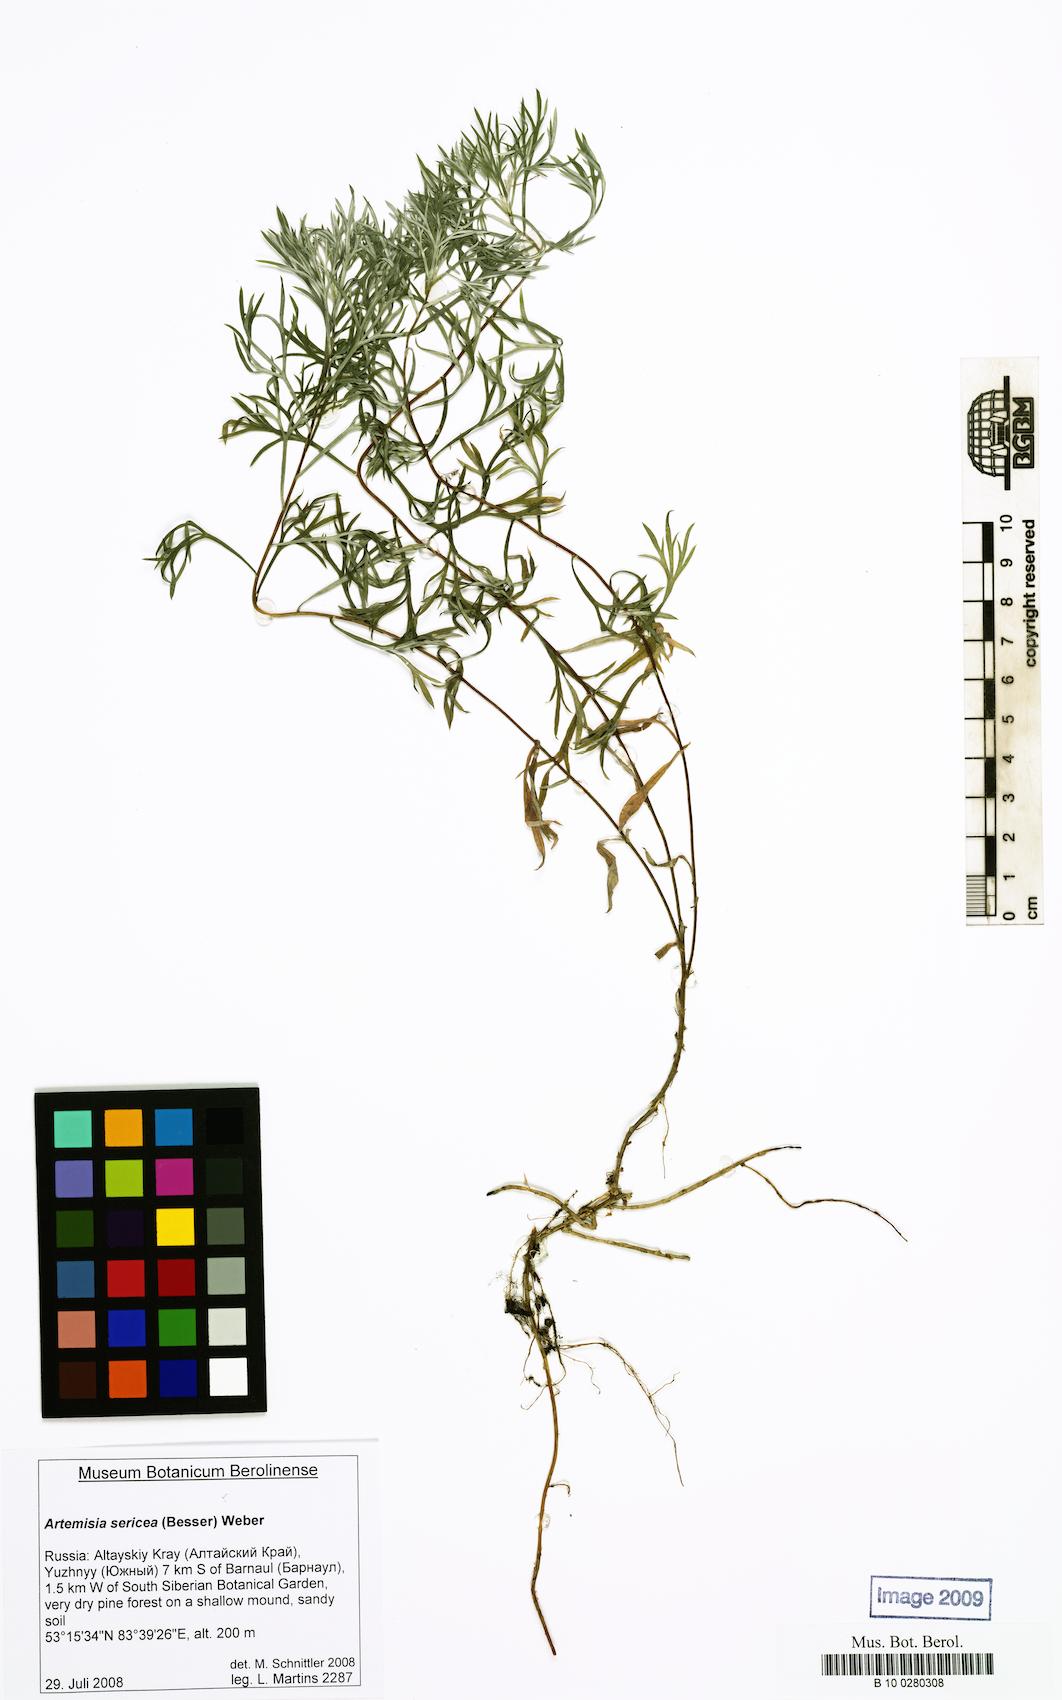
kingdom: Plantae
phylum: Tracheophyta
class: Magnoliopsida
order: Asterales
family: Asteraceae
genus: Artemisia
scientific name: Artemisia sericea
